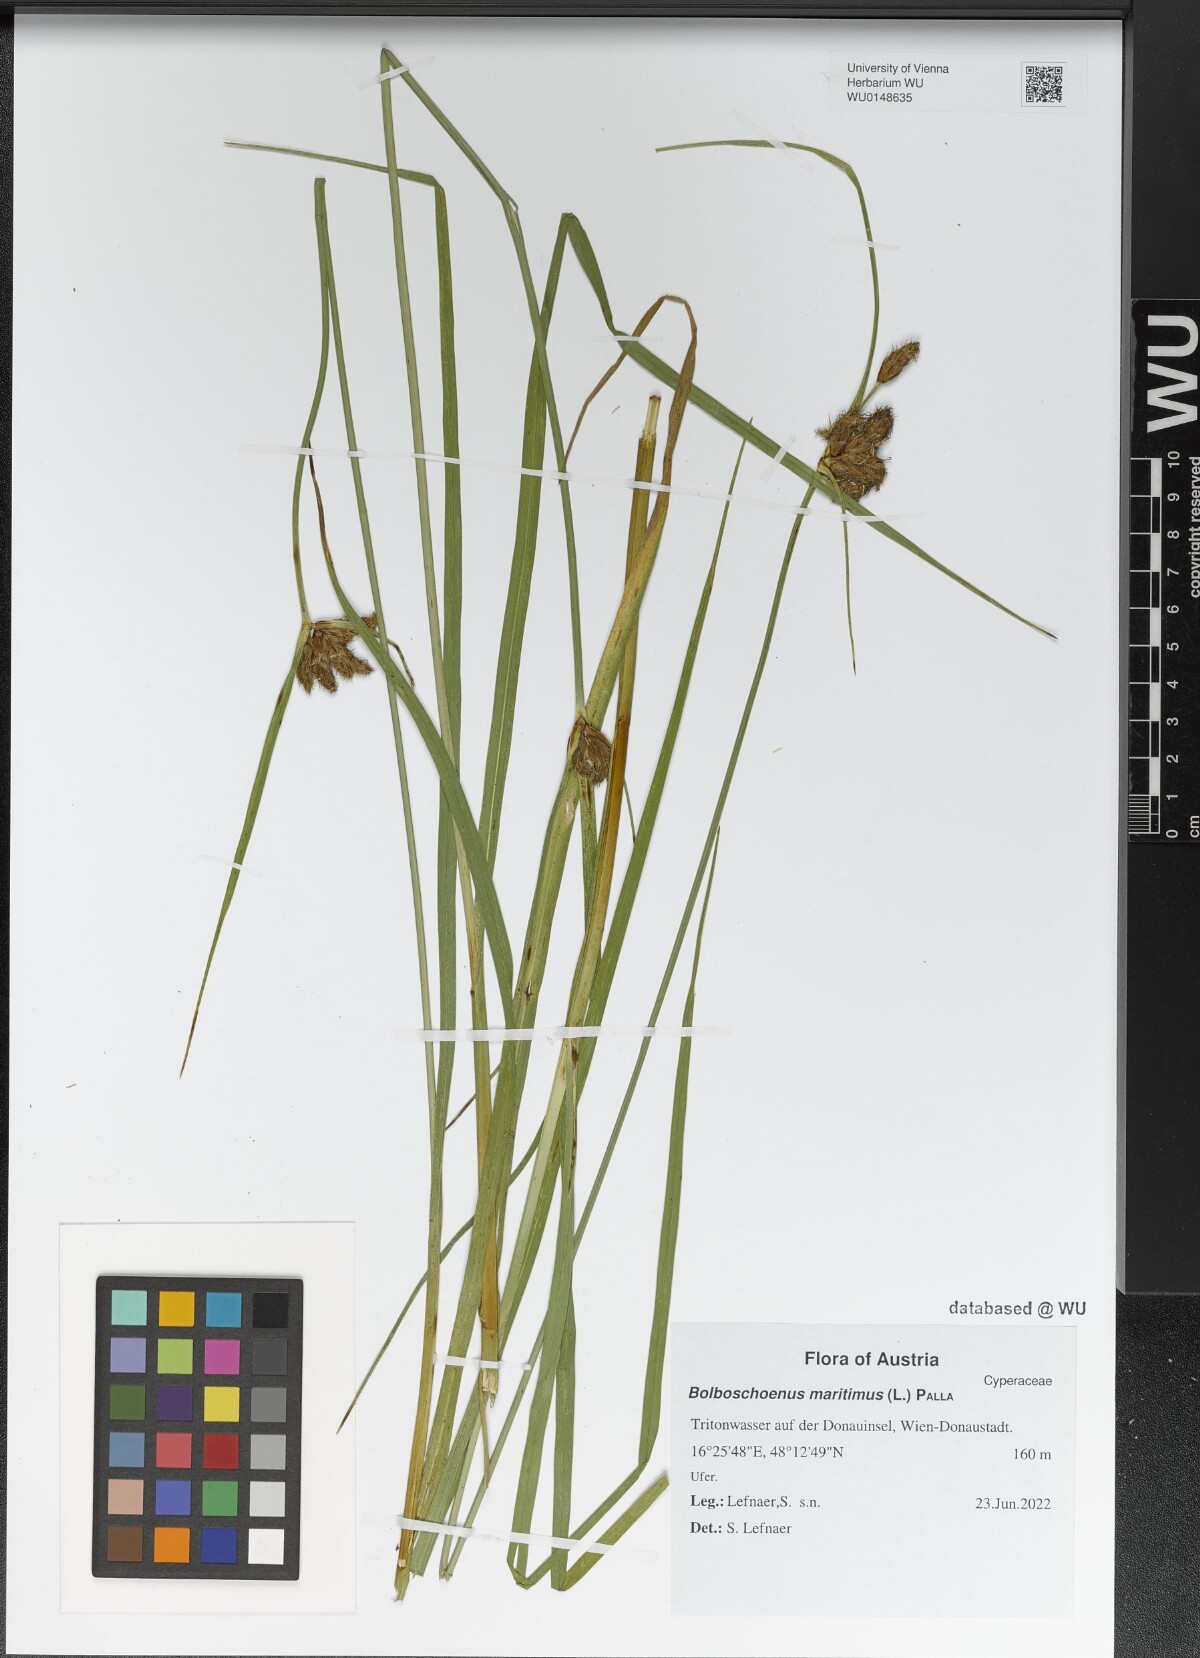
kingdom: Plantae
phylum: Tracheophyta
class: Liliopsida
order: Poales
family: Cyperaceae
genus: Bolboschoenus
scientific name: Bolboschoenus maritimus
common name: Sea club-rush
